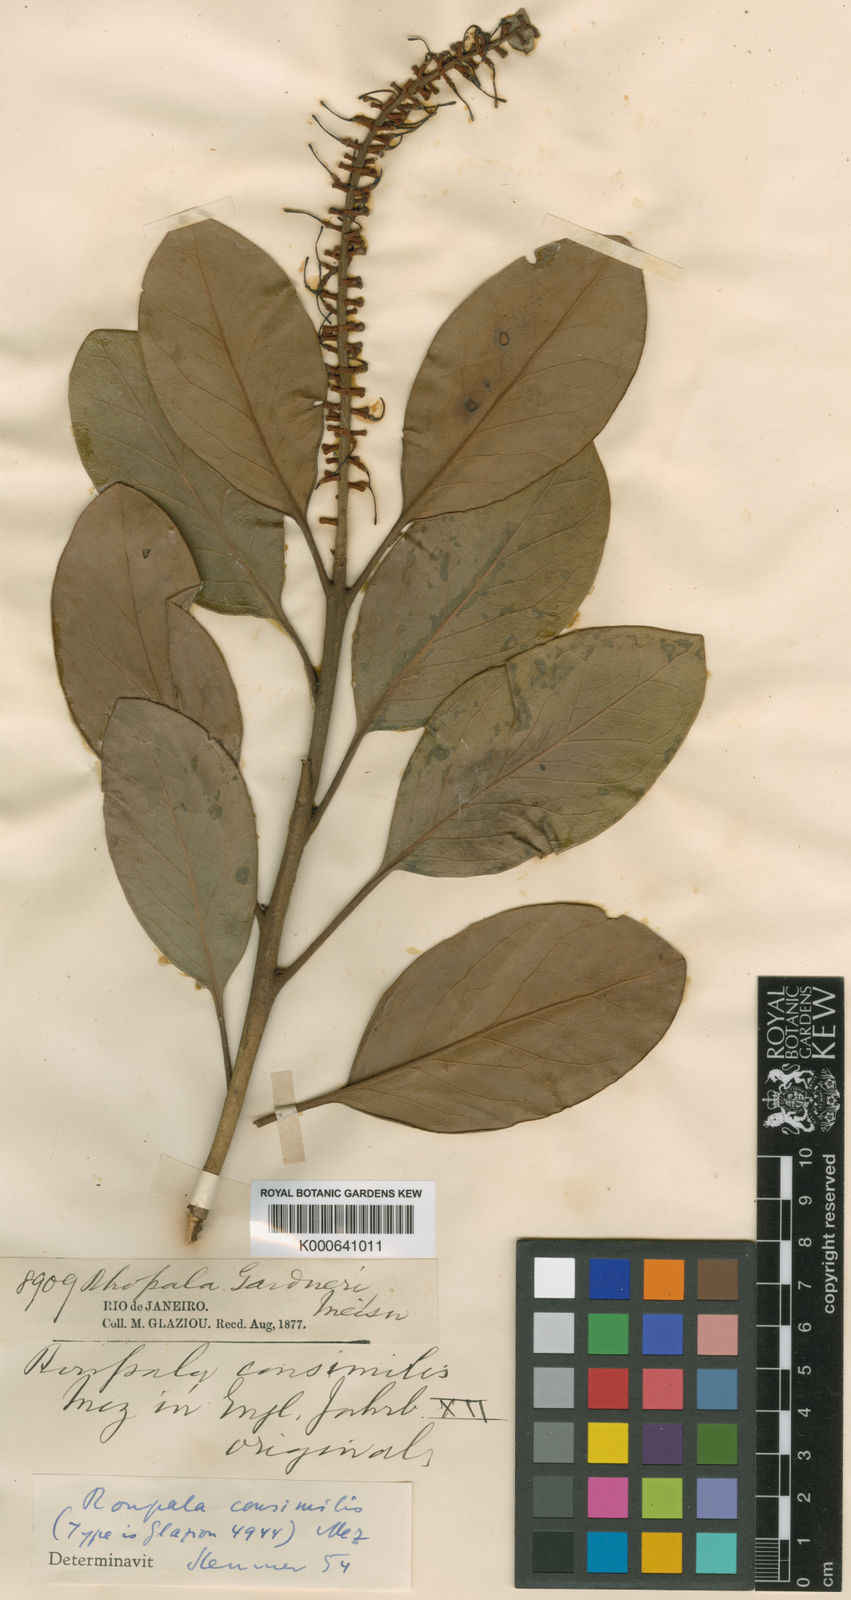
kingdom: Plantae
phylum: Tracheophyta
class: Magnoliopsida
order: Proteales
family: Proteaceae
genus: Roupala
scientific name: Roupala
